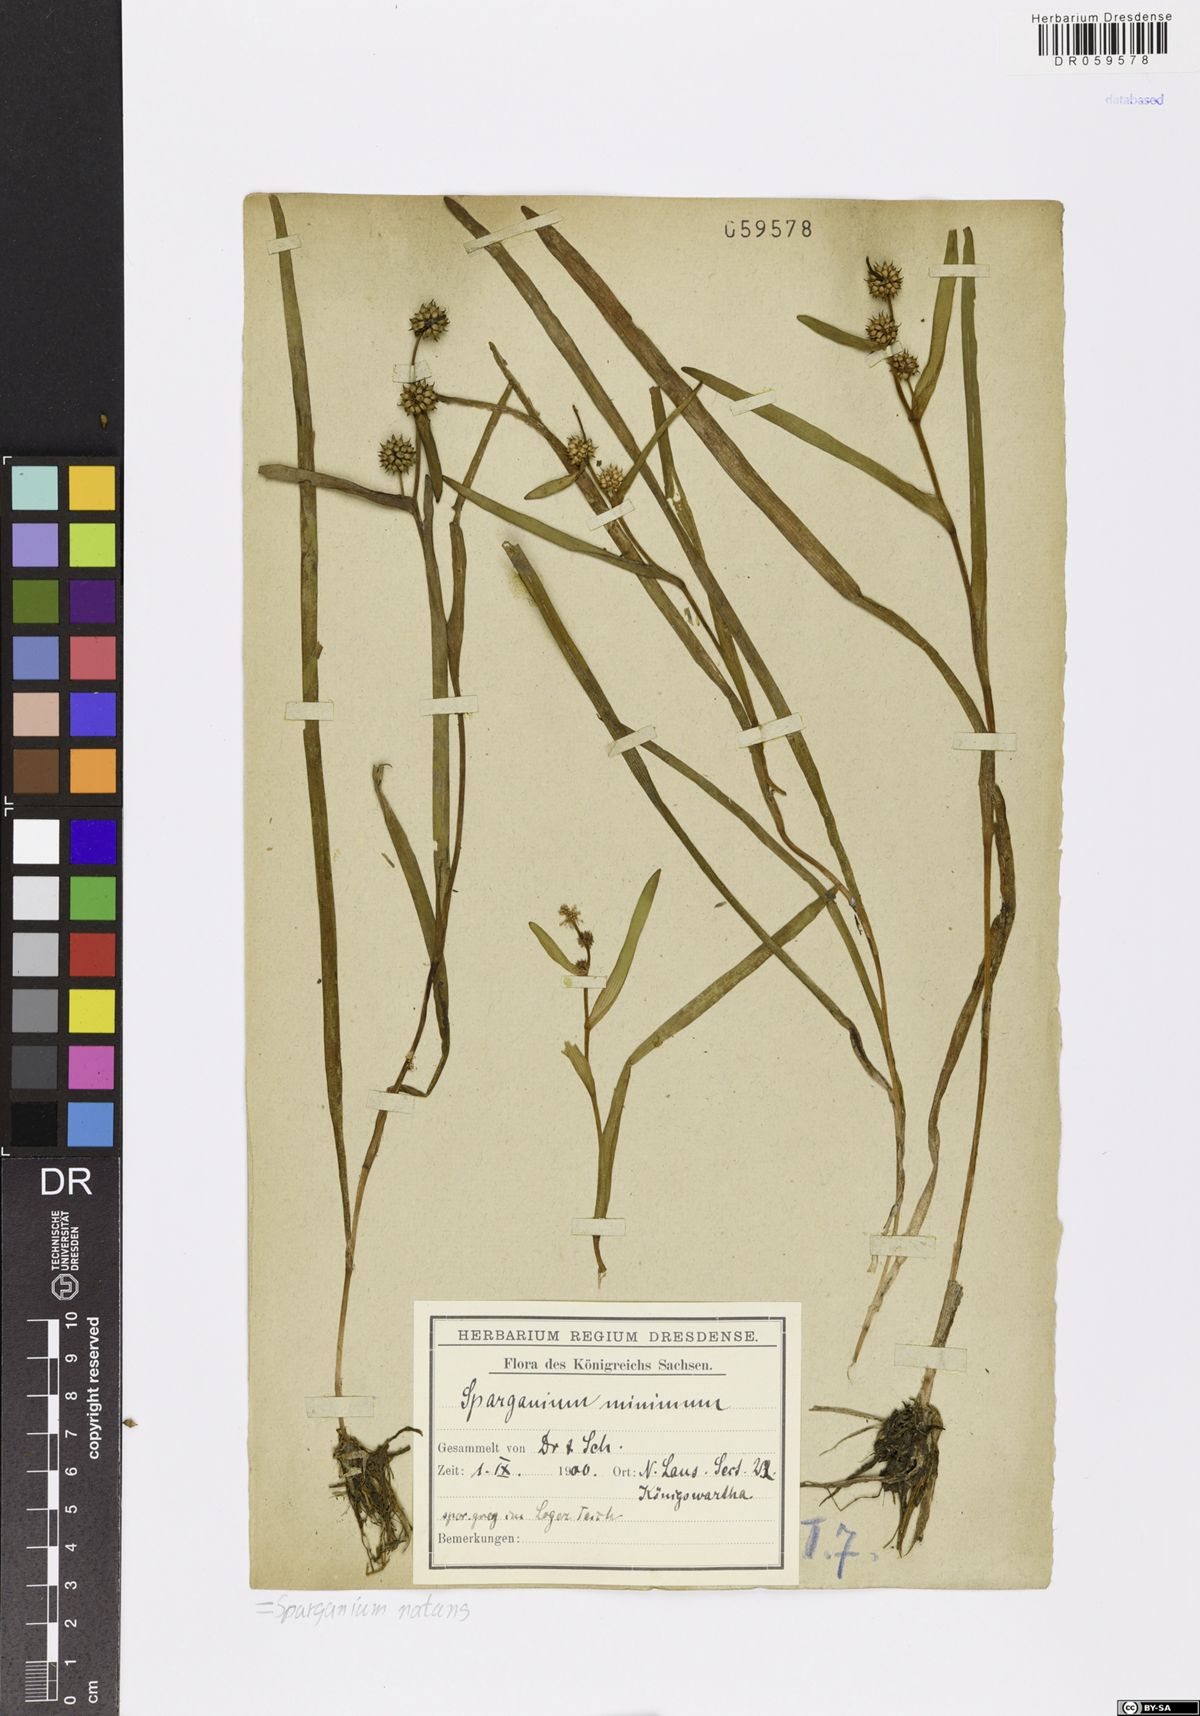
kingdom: Plantae
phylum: Tracheophyta
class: Liliopsida
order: Poales
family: Typhaceae
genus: Sparganium
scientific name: Sparganium natans
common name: Least bur-reed
